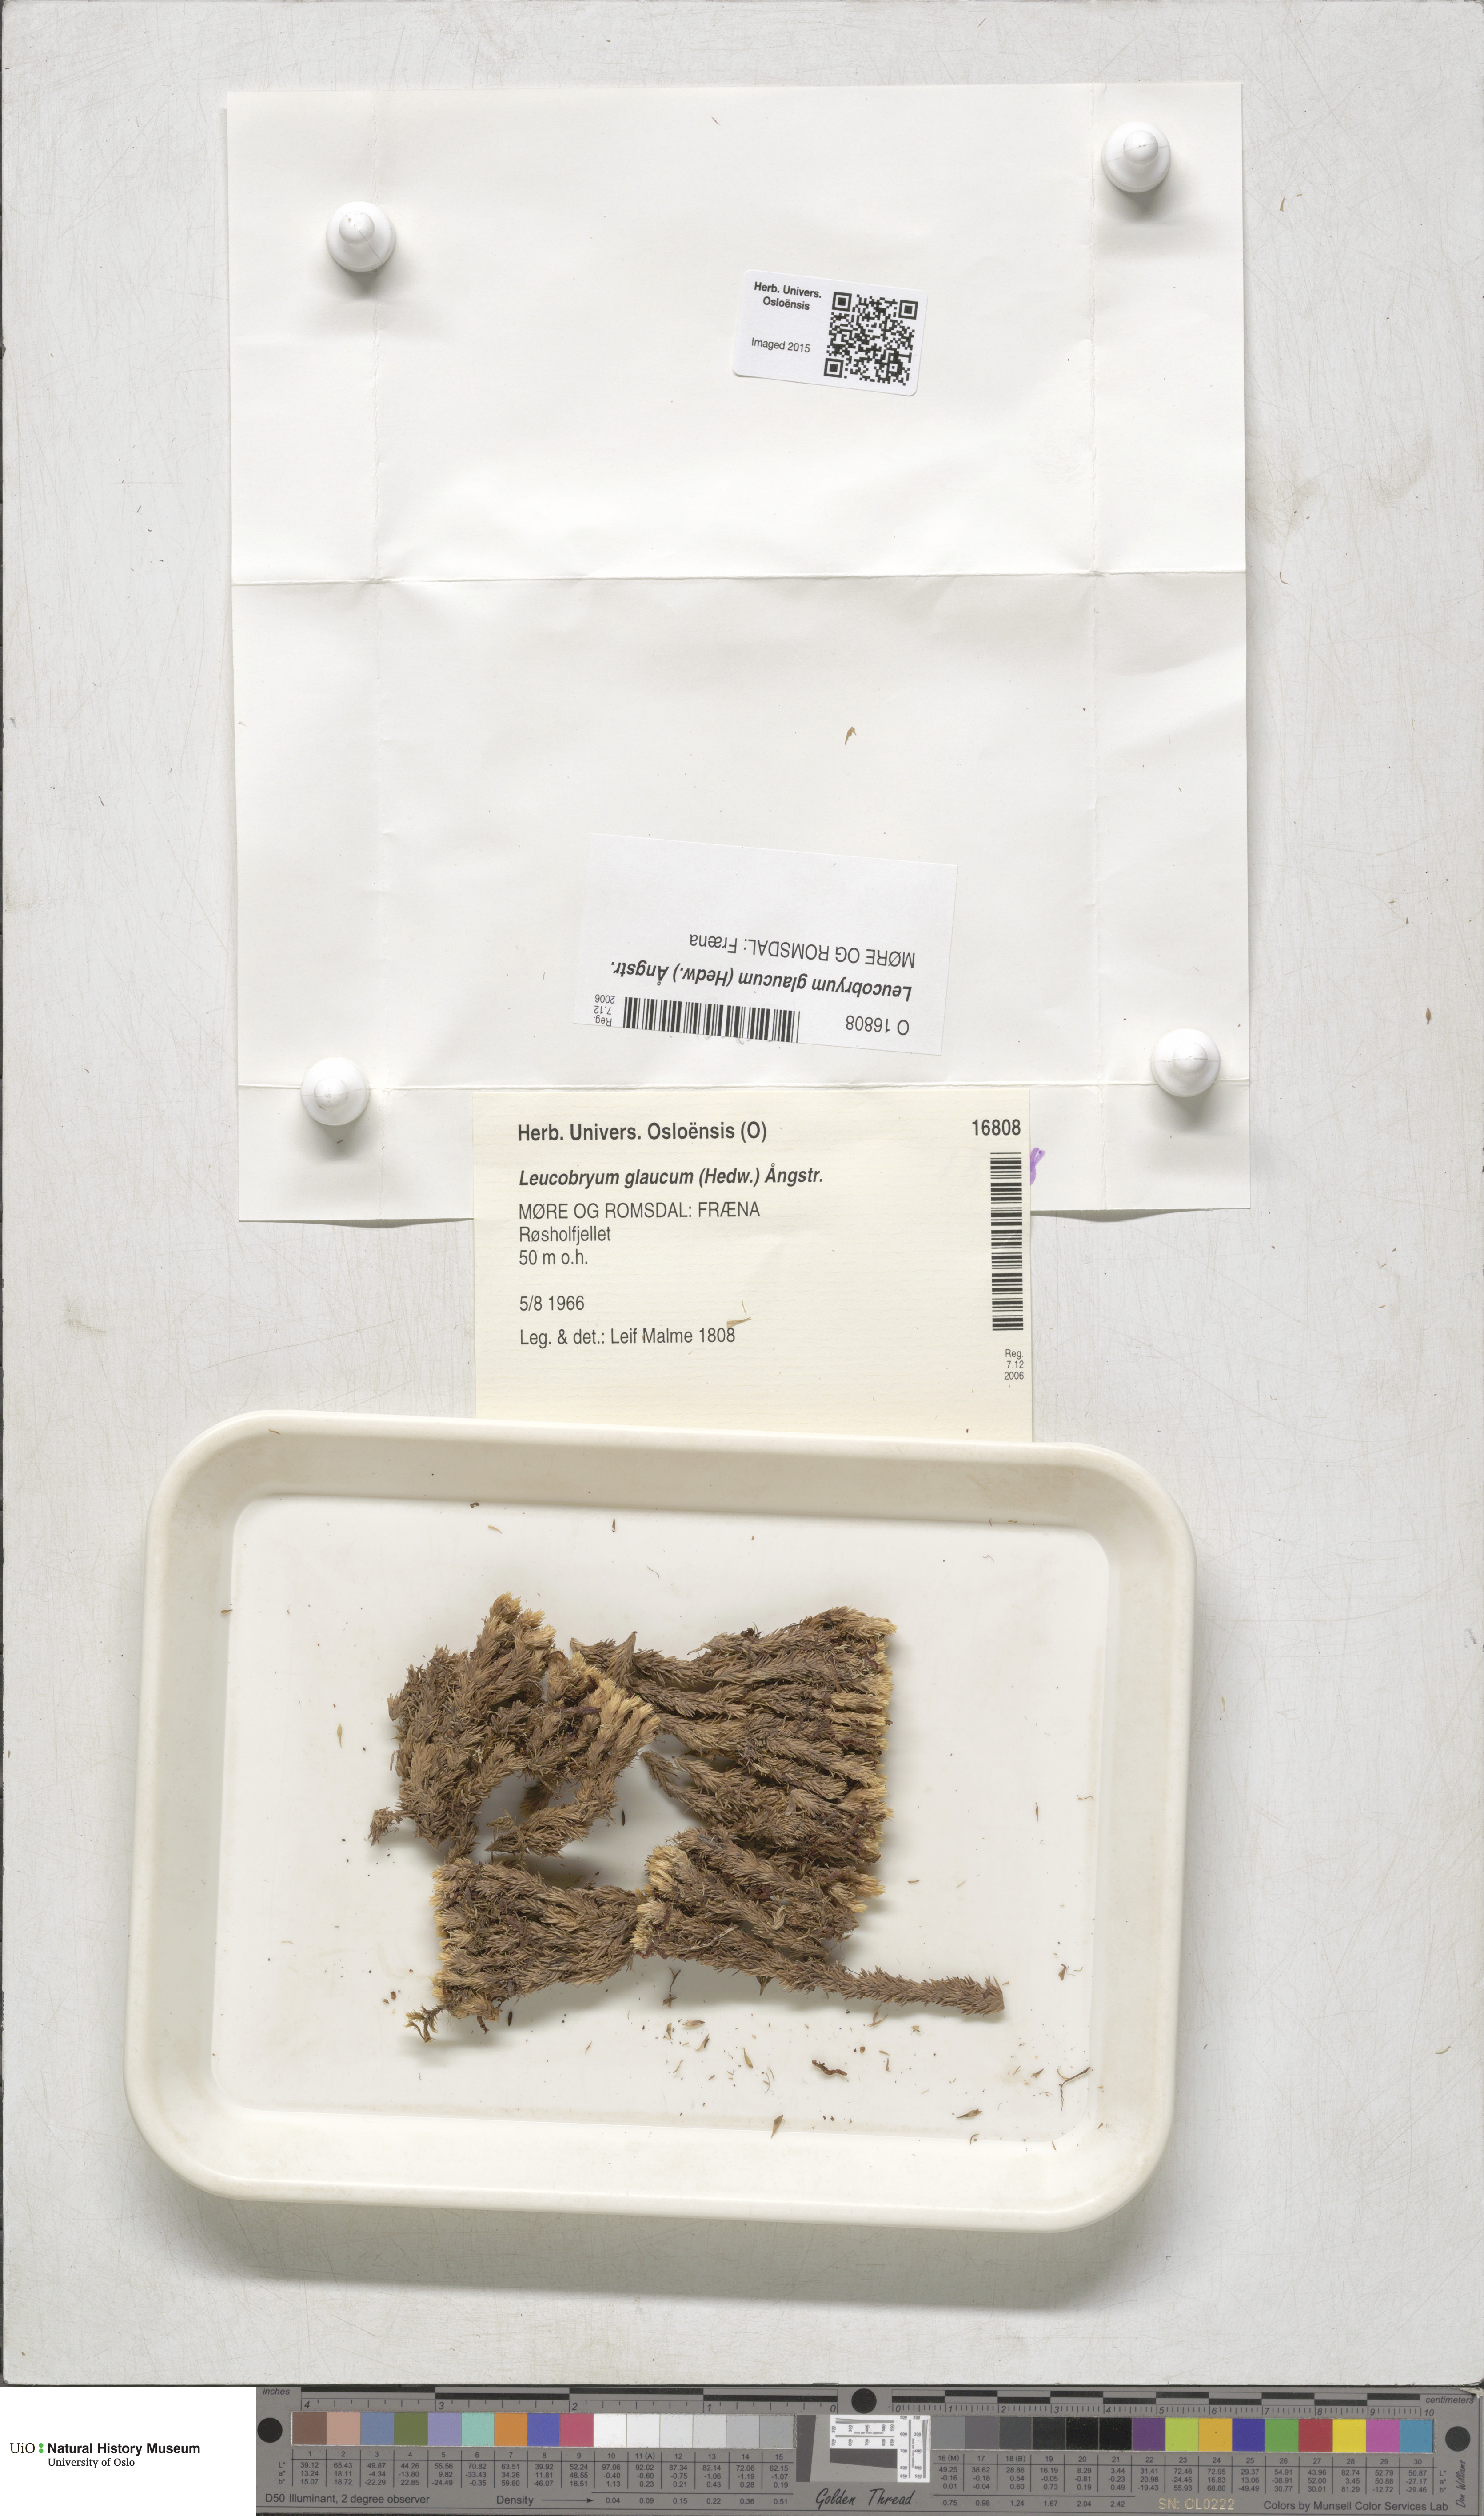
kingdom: Plantae
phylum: Bryophyta
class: Bryopsida
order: Dicranales
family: Leucobryaceae
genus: Leucobryum
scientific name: Leucobryum glaucum
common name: Large white-moss
